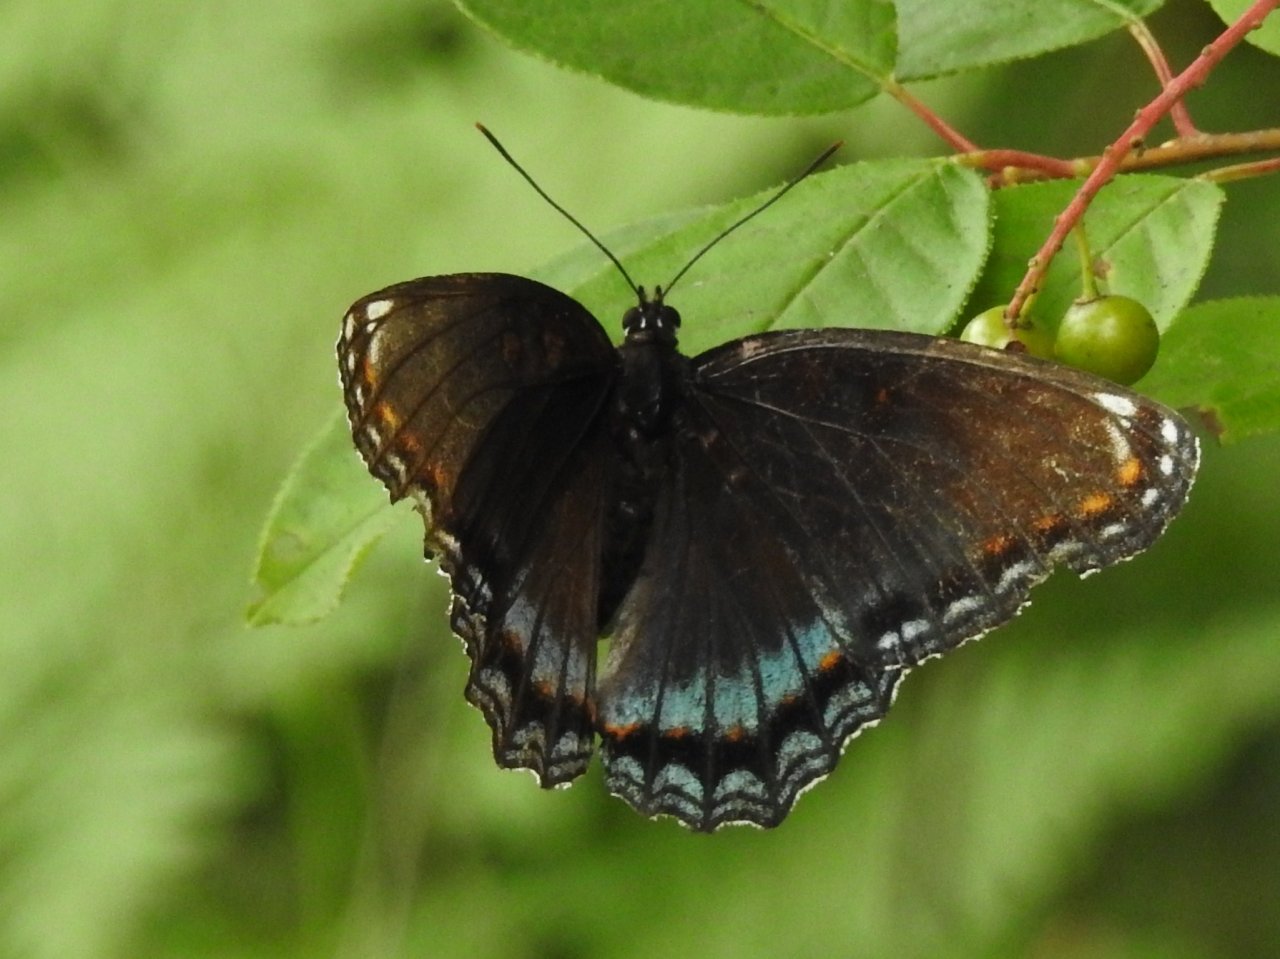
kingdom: Animalia
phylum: Arthropoda
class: Insecta
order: Lepidoptera
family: Nymphalidae
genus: Limenitis
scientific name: Limenitis astyanax
